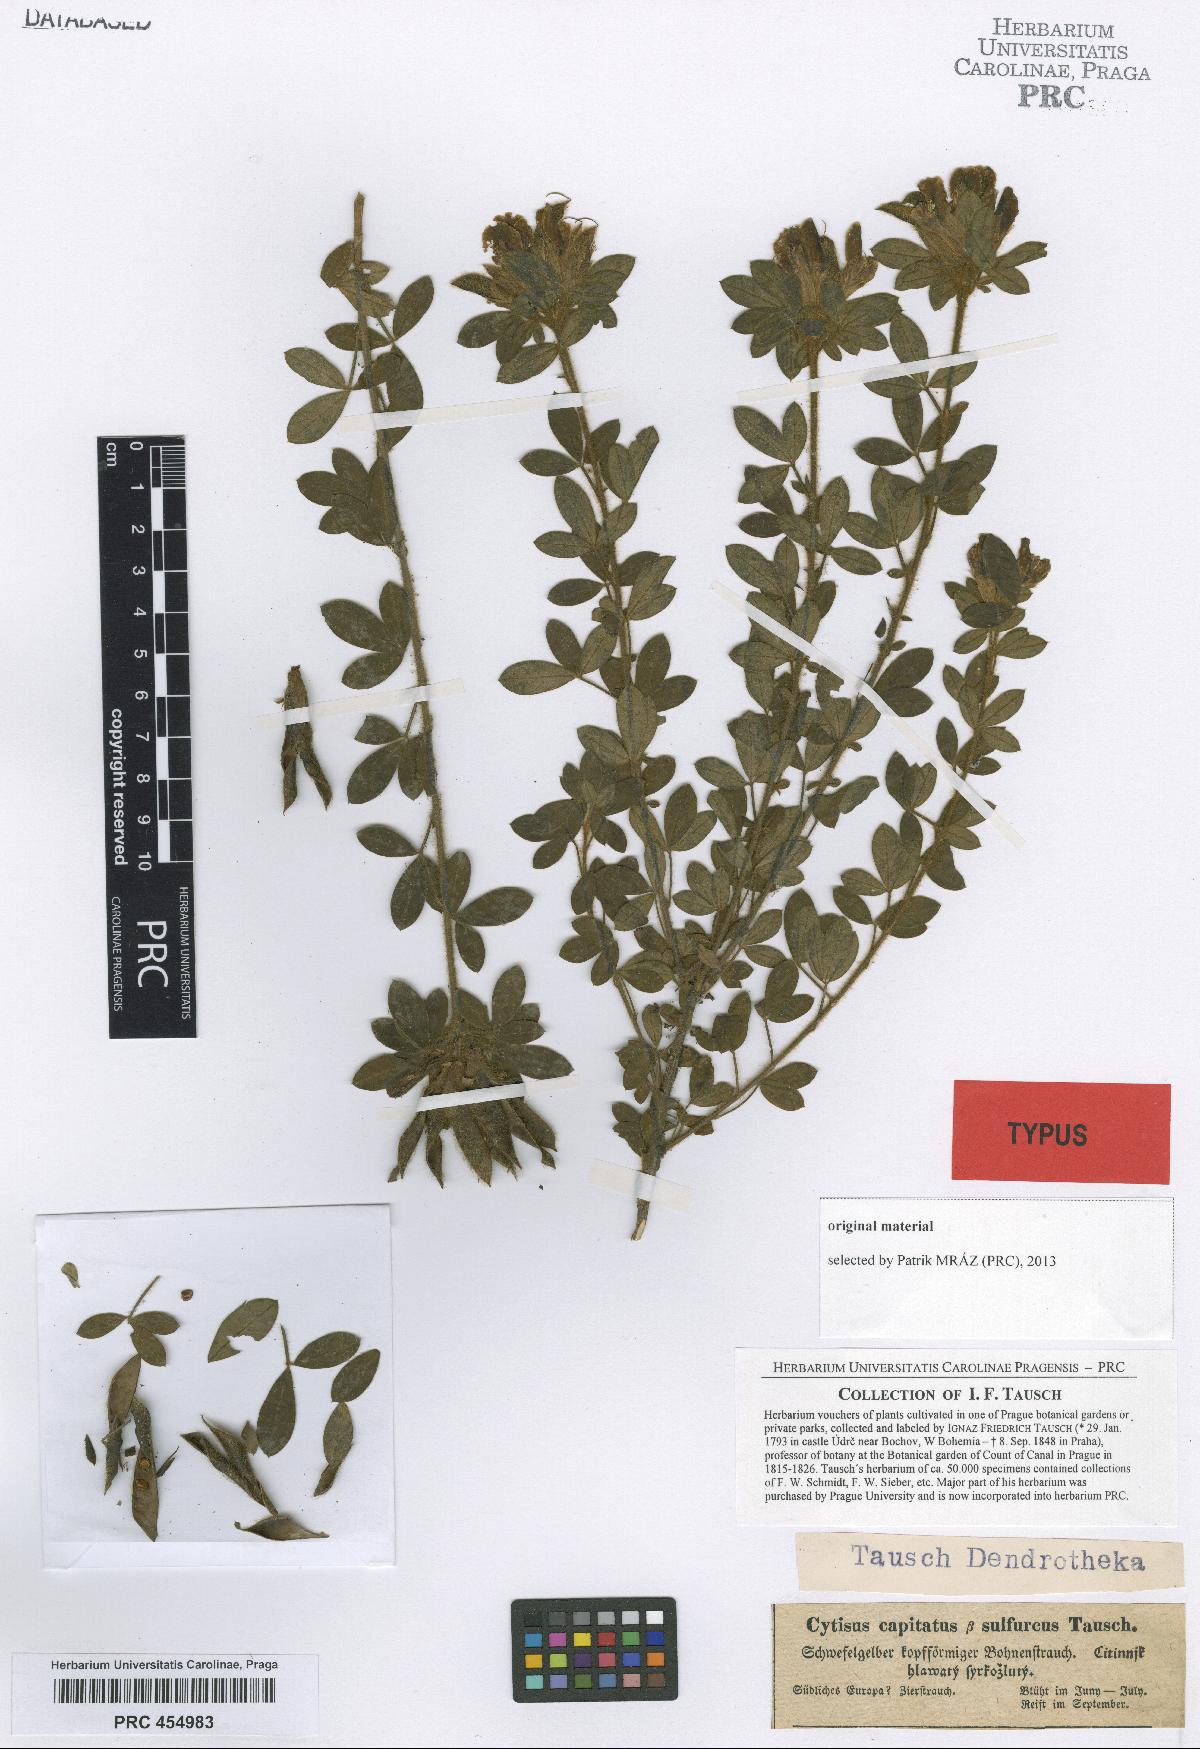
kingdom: Plantae
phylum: Tracheophyta
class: Magnoliopsida
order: Fabales
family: Fabaceae
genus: Chamaecytisus
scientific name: Chamaecytisus hirsutus
